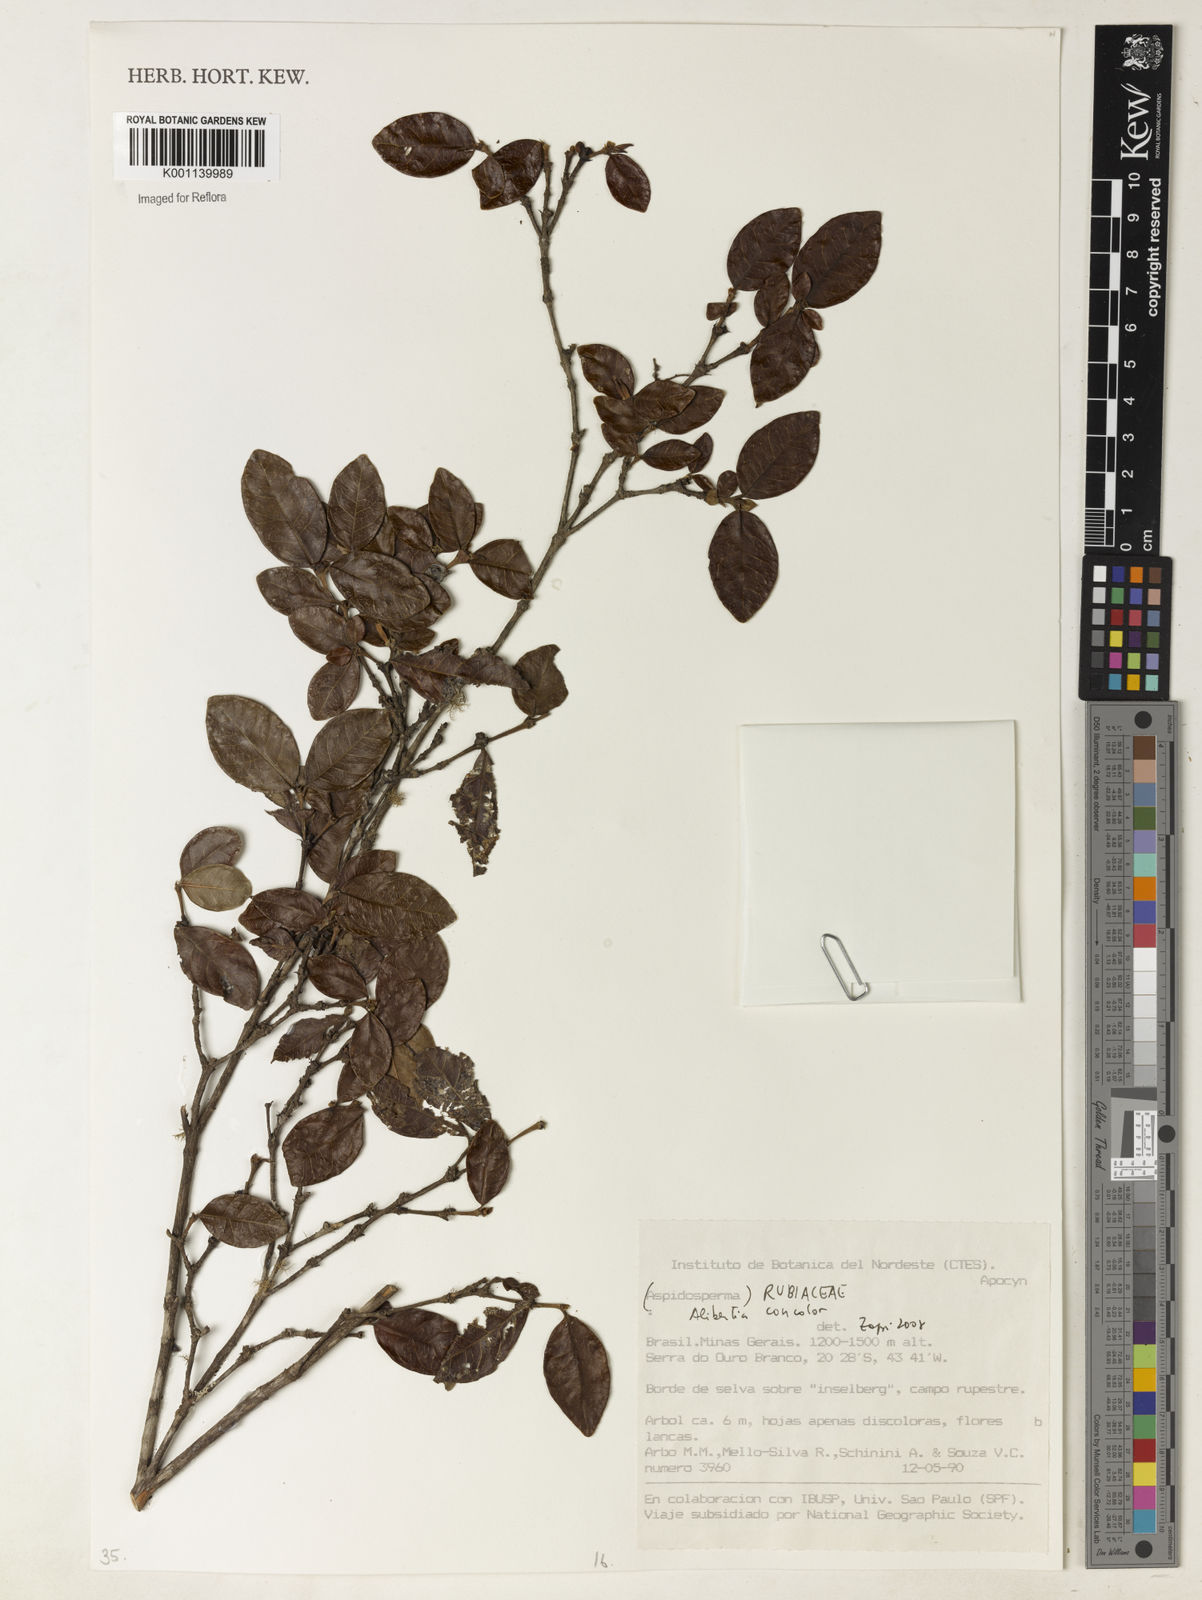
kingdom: Plantae
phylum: Tracheophyta
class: Magnoliopsida
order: Gentianales
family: Rubiaceae
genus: Cordiera
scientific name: Cordiera concolor
